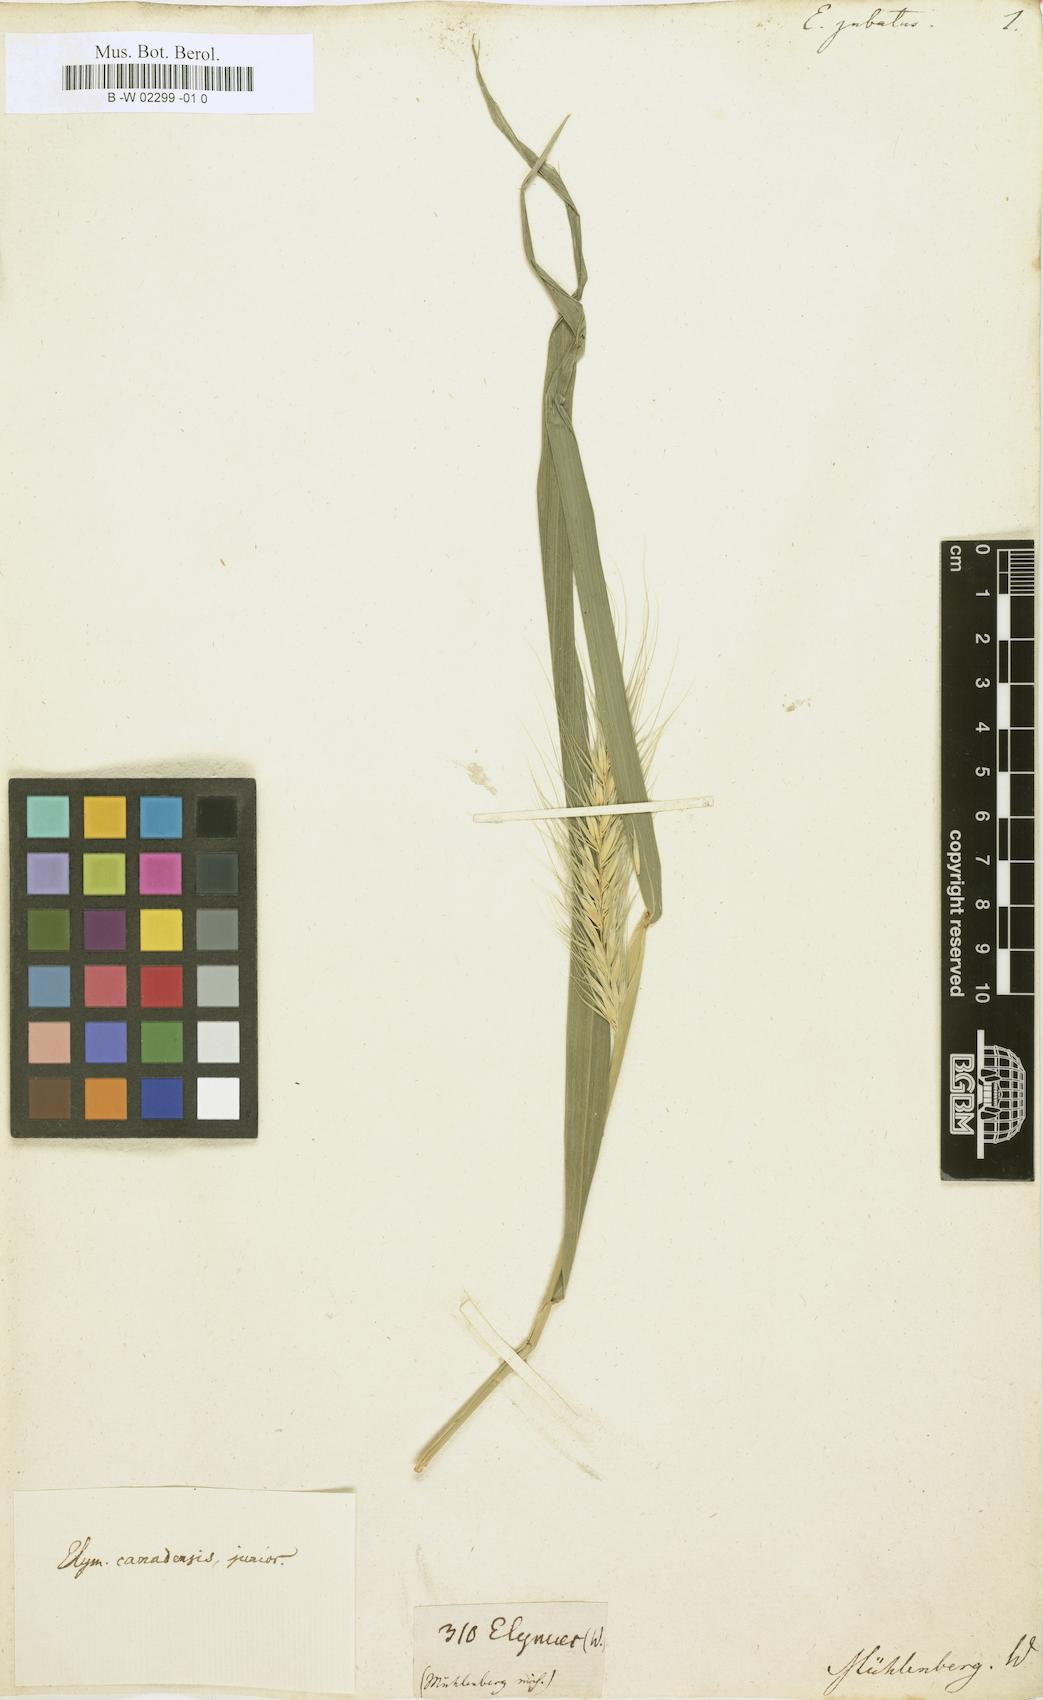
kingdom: Plantae
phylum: Tracheophyta
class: Liliopsida
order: Poales
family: Poaceae
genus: Hordeum
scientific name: Hordeum jubatum
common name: Foxtail barley
